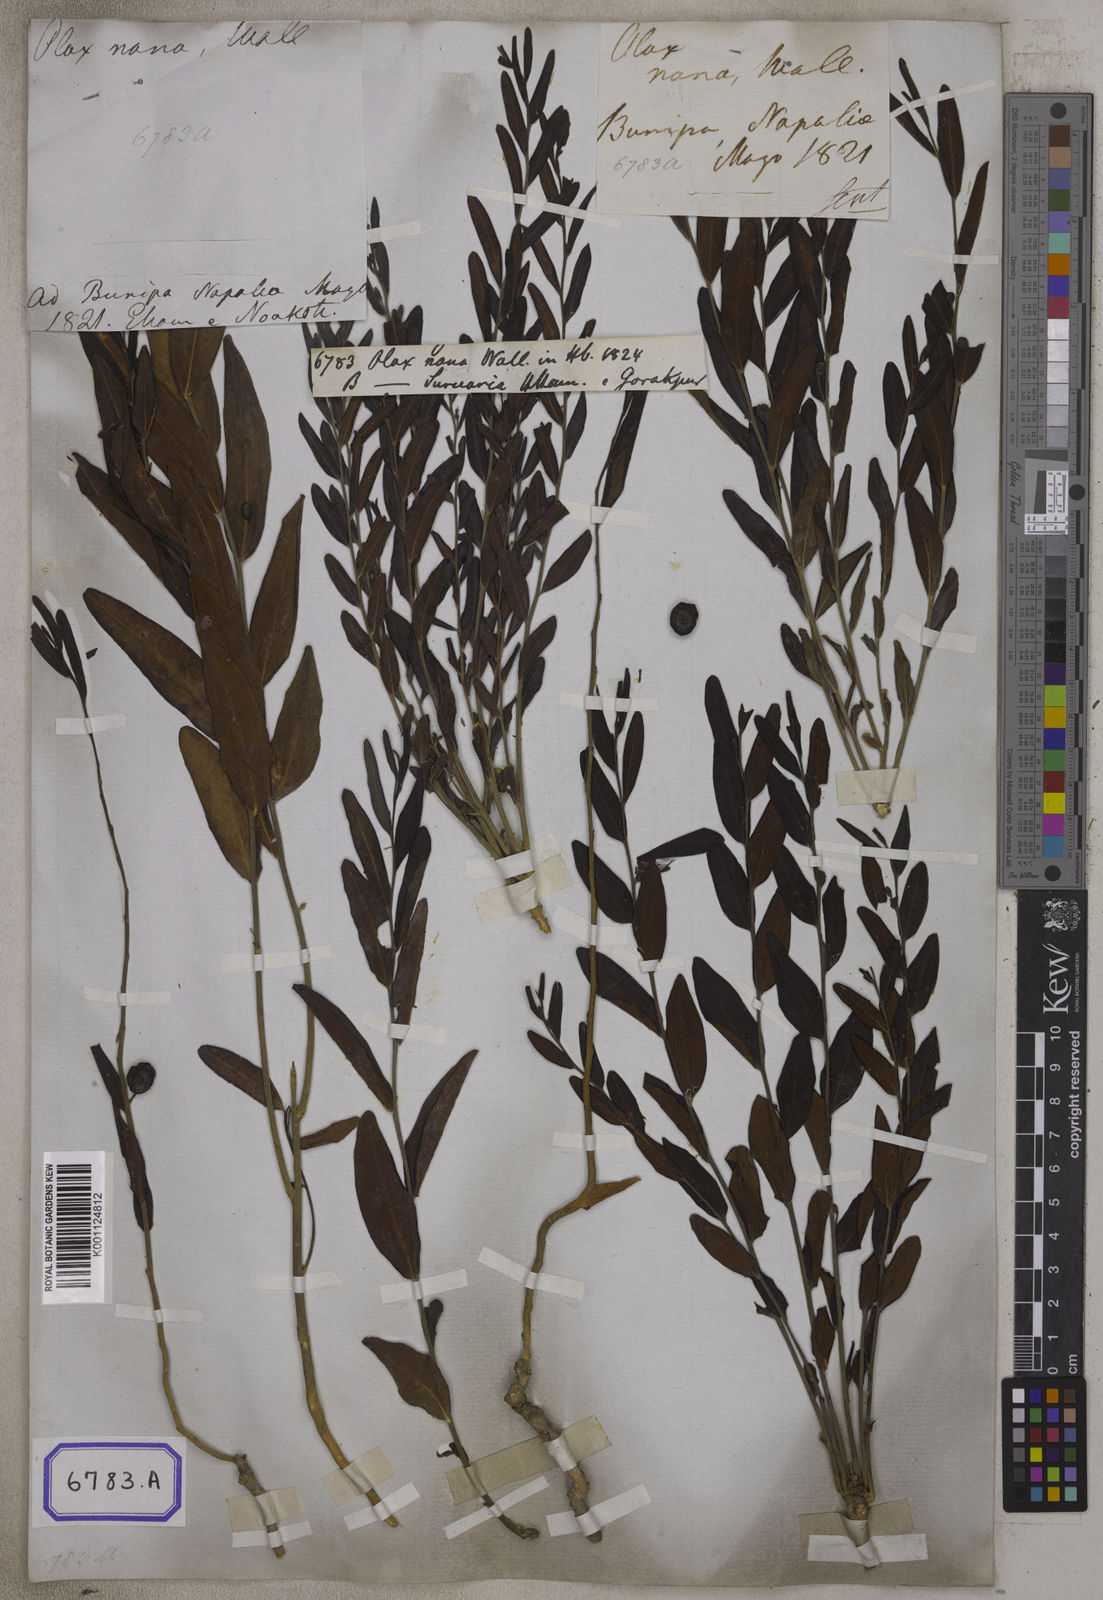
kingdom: Plantae
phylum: Tracheophyta
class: Magnoliopsida
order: Santalales
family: Olacaceae
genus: Olax
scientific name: Olax
